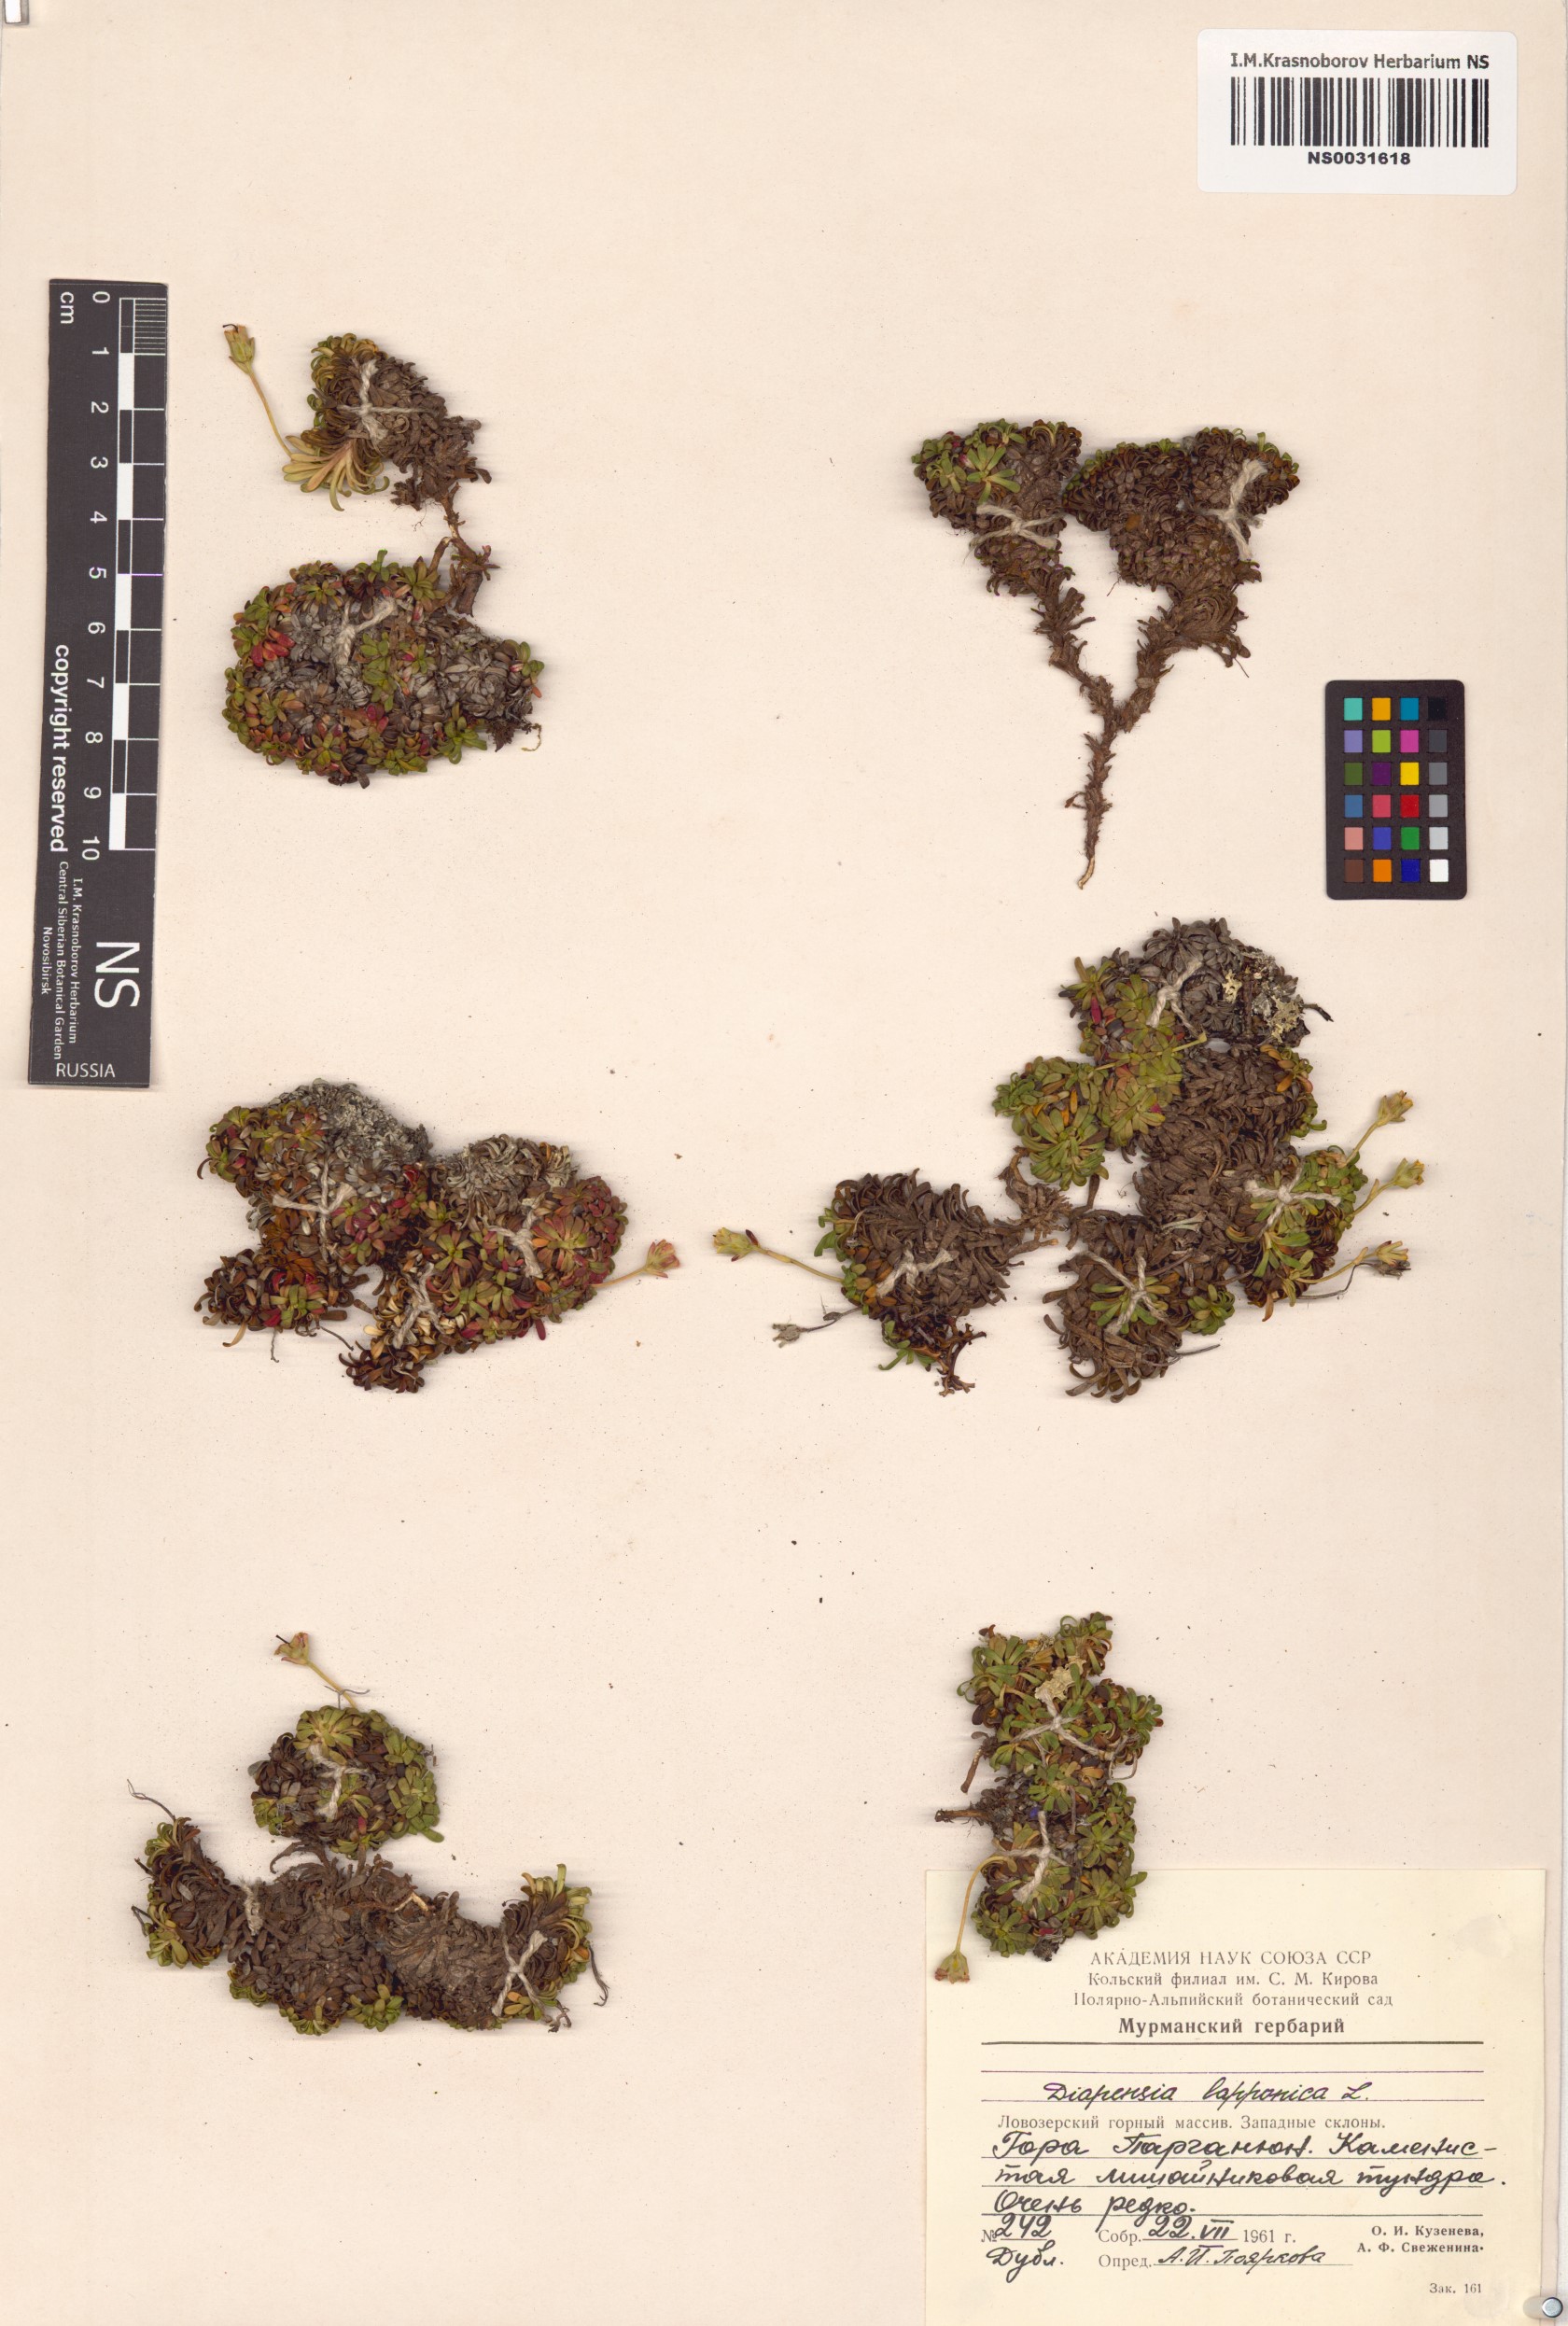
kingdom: Plantae
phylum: Tracheophyta
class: Magnoliopsida
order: Ericales
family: Diapensiaceae
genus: Diapensia
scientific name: Diapensia lapponica
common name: Diapensia
